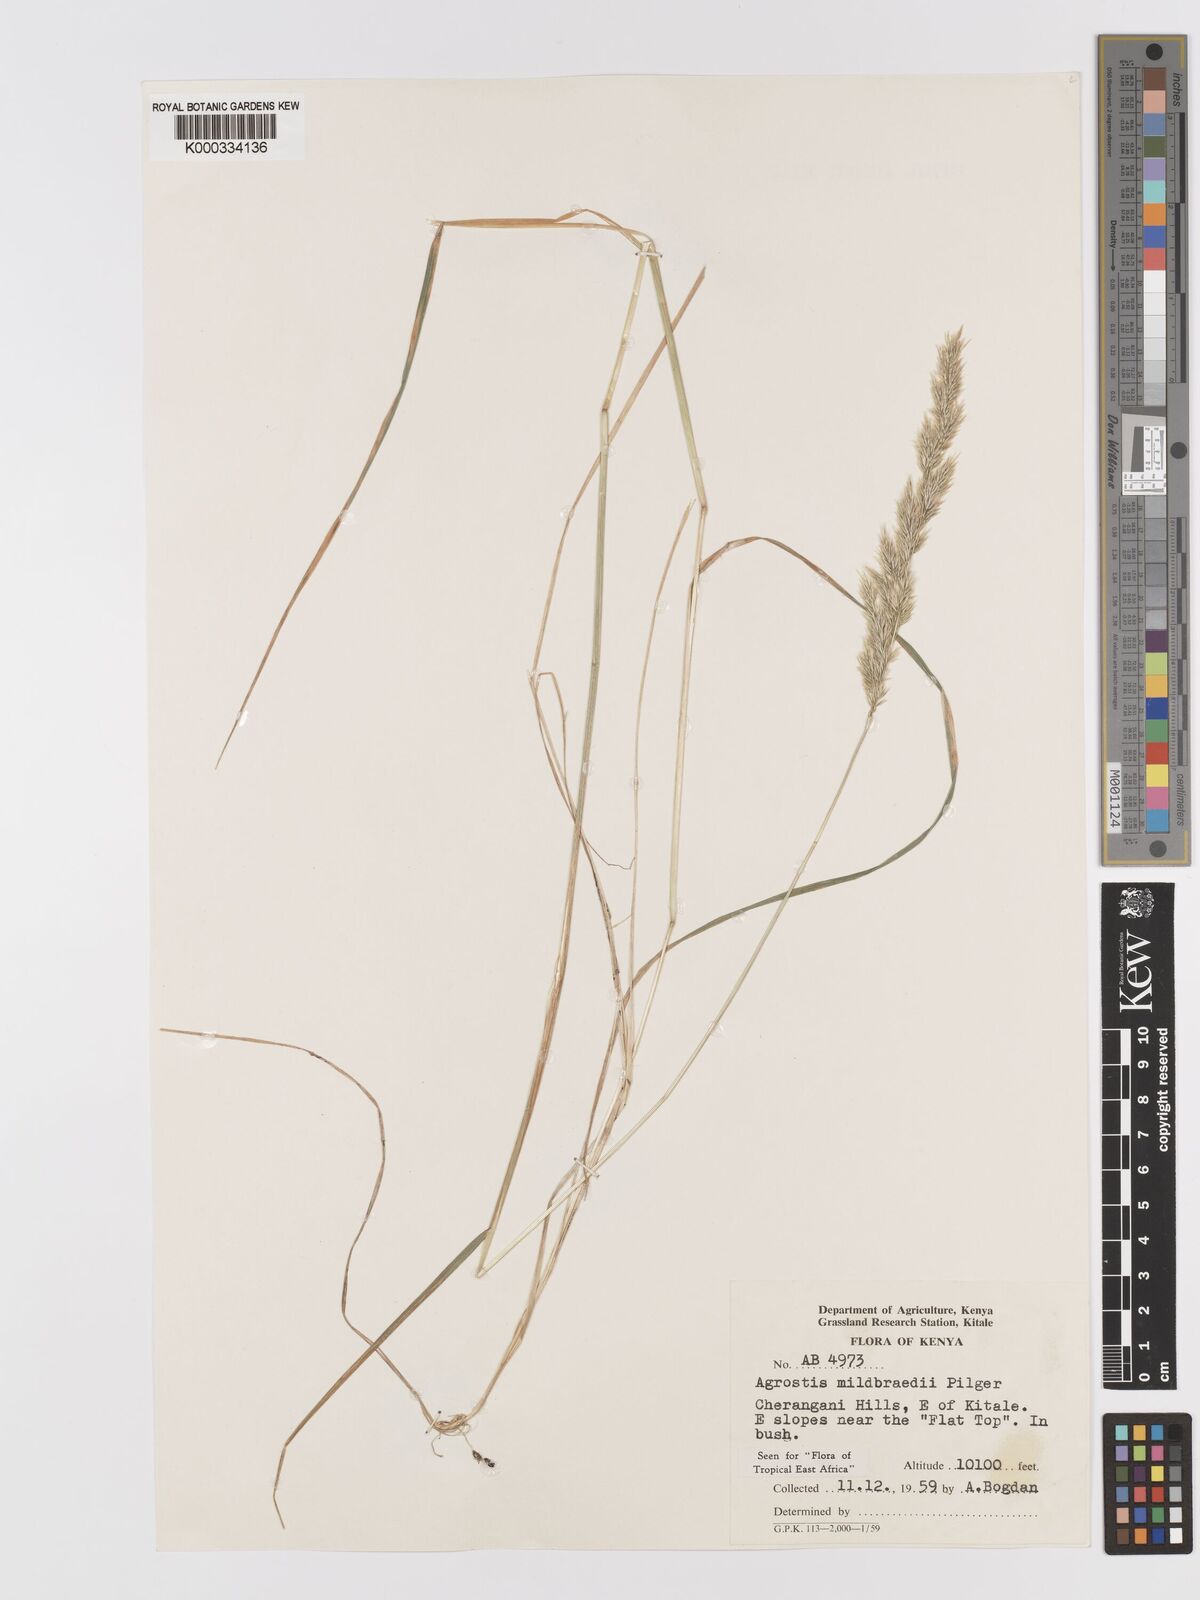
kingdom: Plantae
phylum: Tracheophyta
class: Liliopsida
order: Poales
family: Poaceae
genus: Agrostis
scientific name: Agrostis quinqueseta
